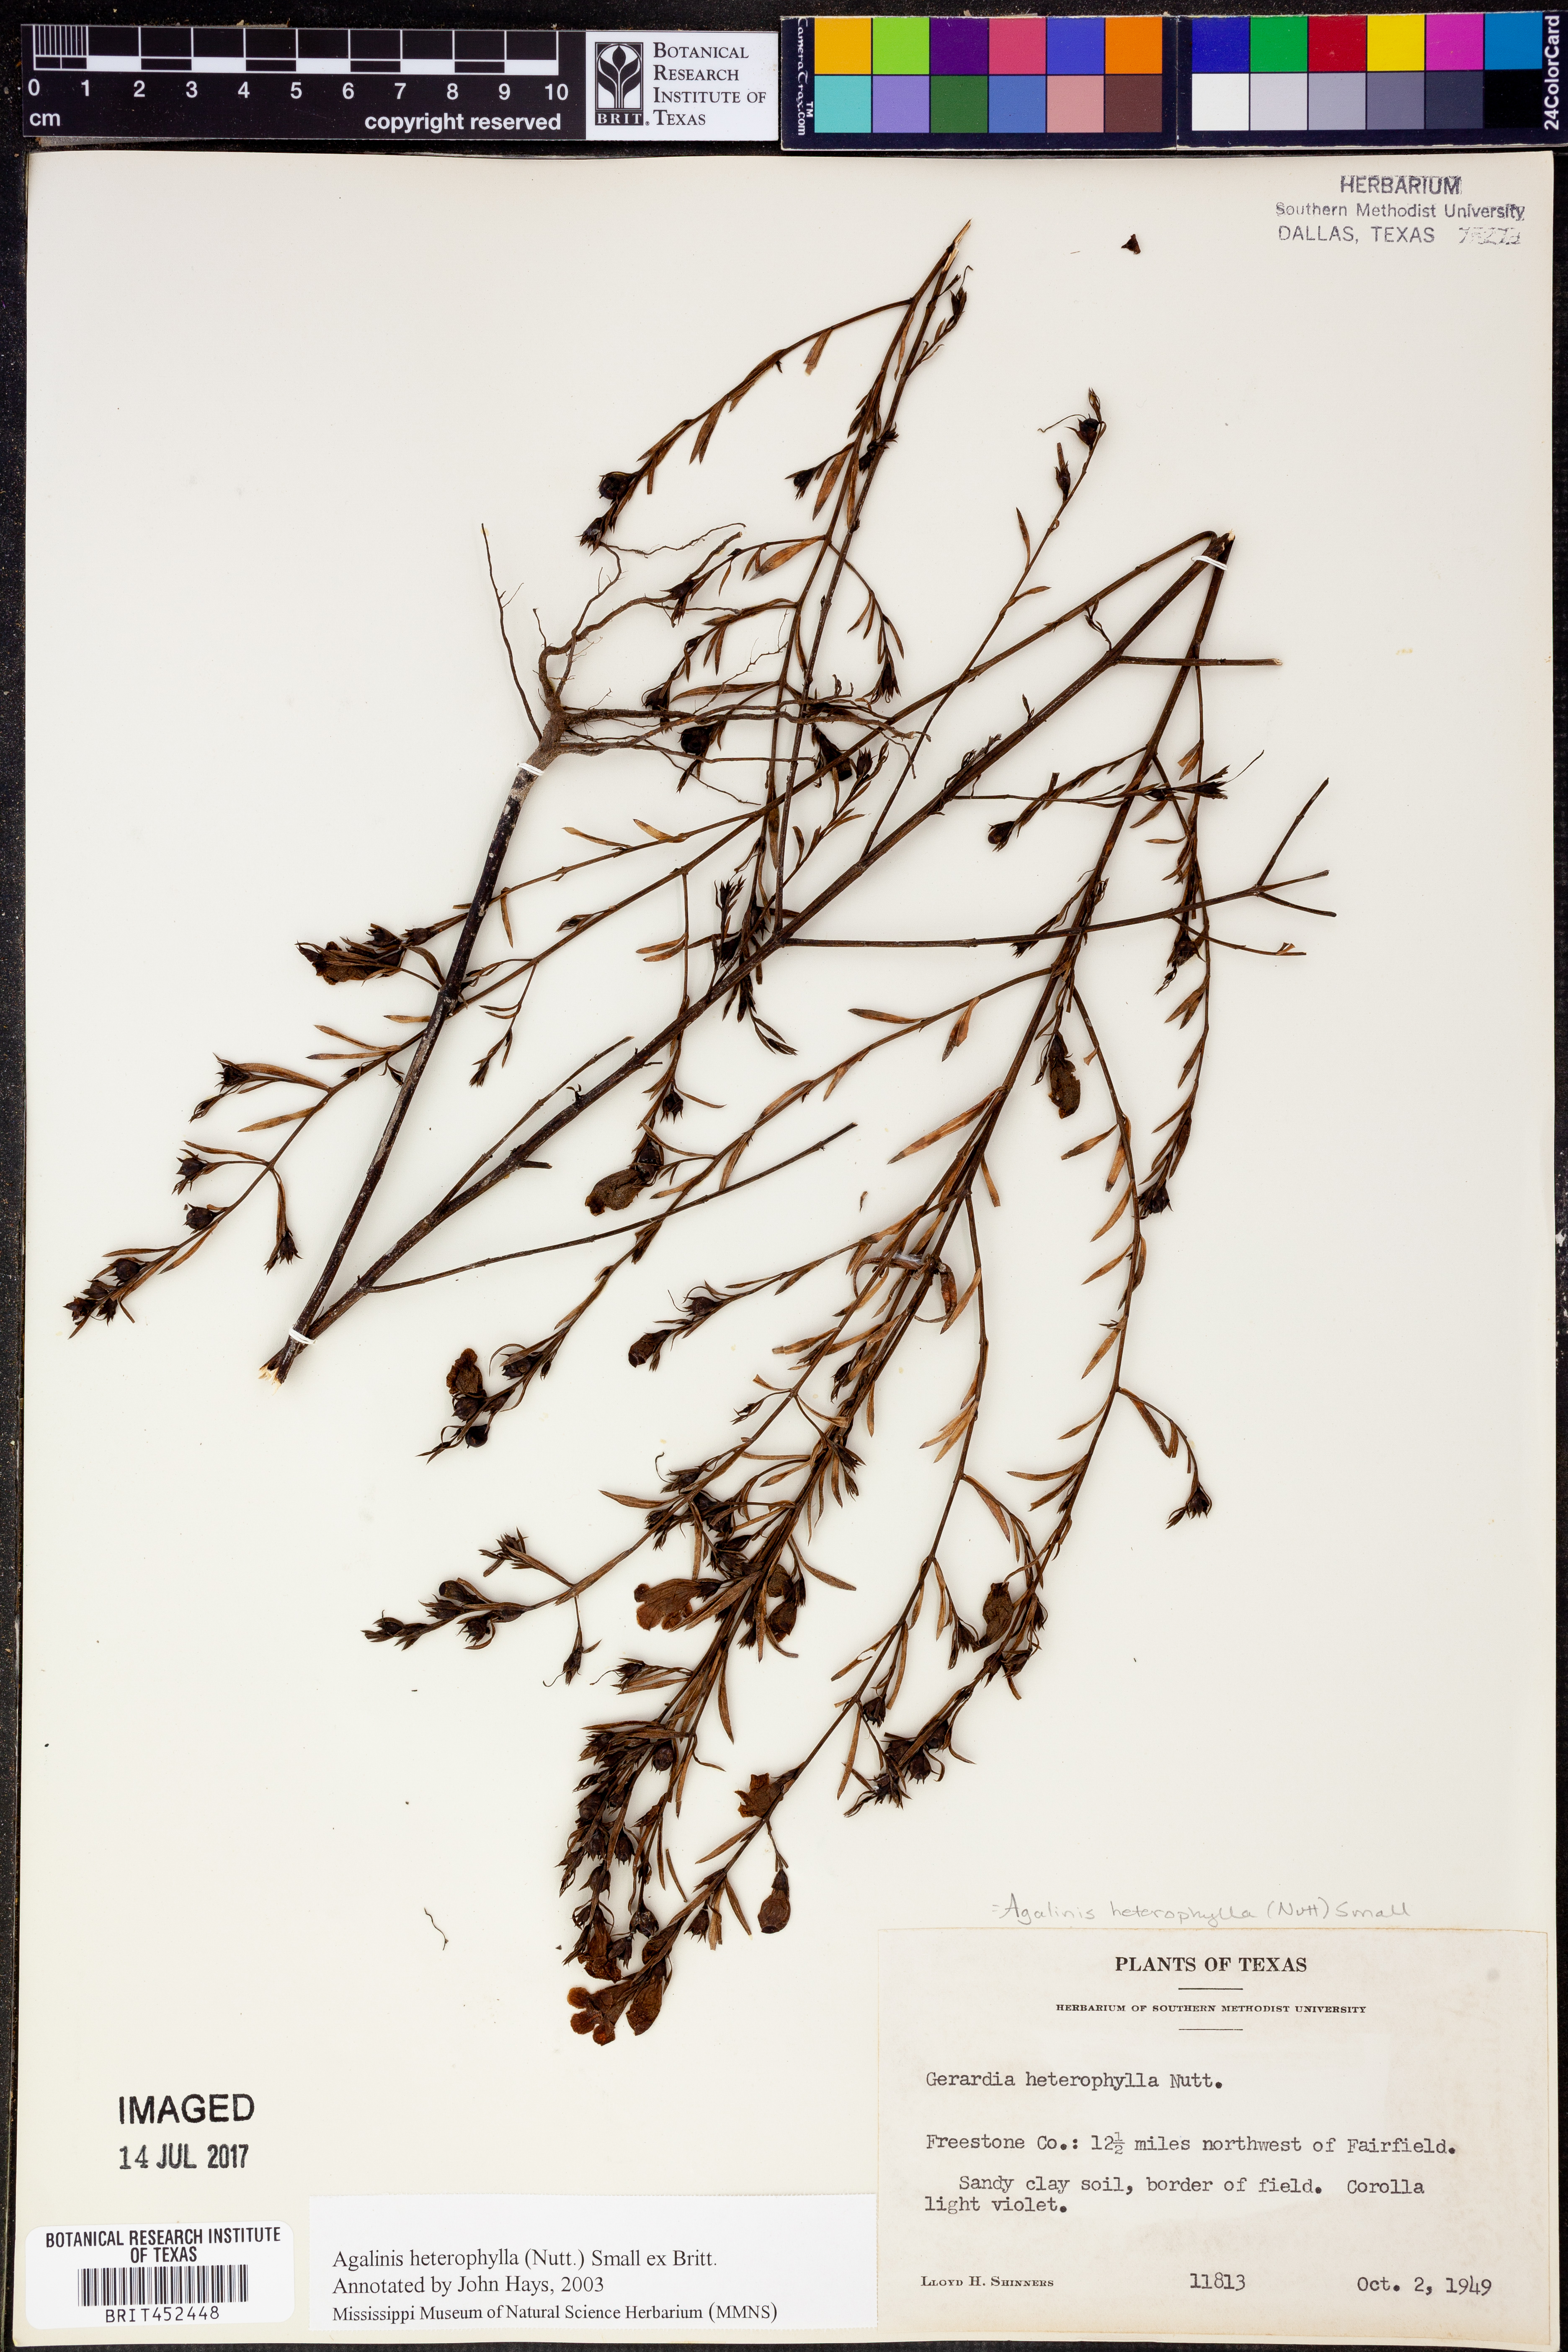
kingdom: Plantae
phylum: Tracheophyta
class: Magnoliopsida
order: Lamiales
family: Orobanchaceae
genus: Agalinis
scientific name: Agalinis heterophylla
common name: Prairie agalinis
